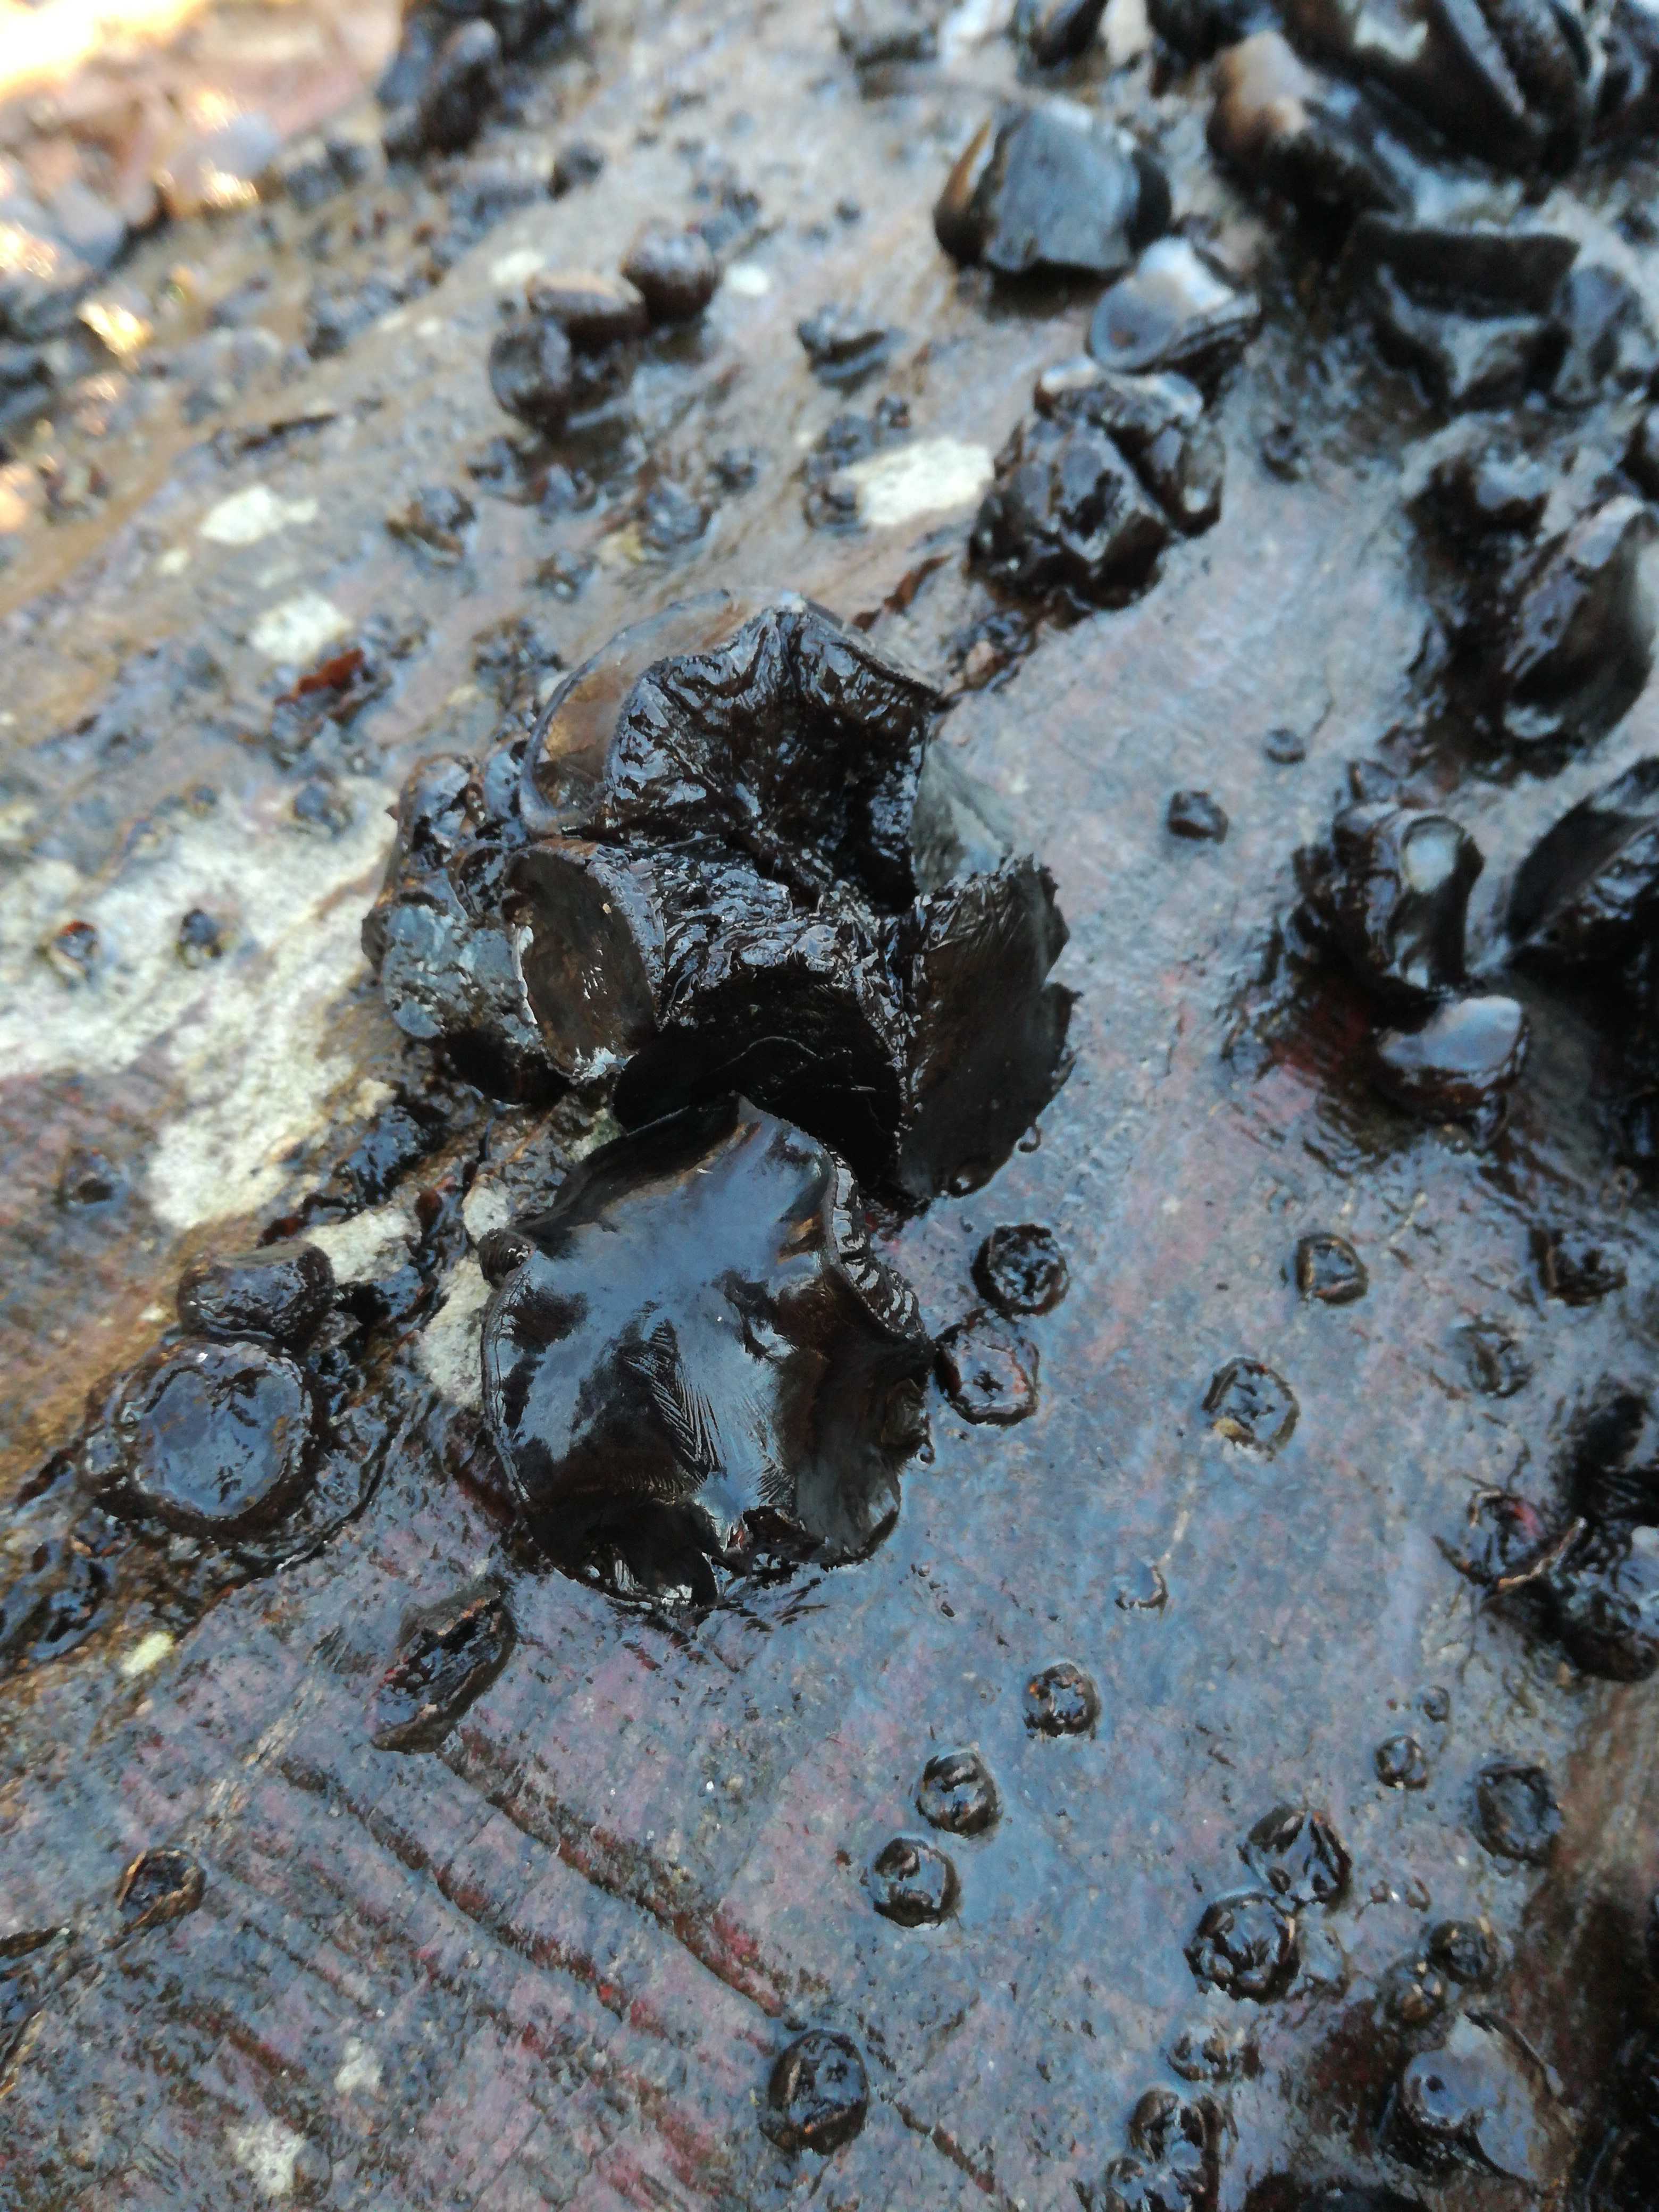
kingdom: Fungi
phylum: Ascomycota
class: Leotiomycetes
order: Phacidiales
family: Phacidiaceae
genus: Bulgaria
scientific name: Bulgaria inquinans
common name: afsmittende topsvamp
